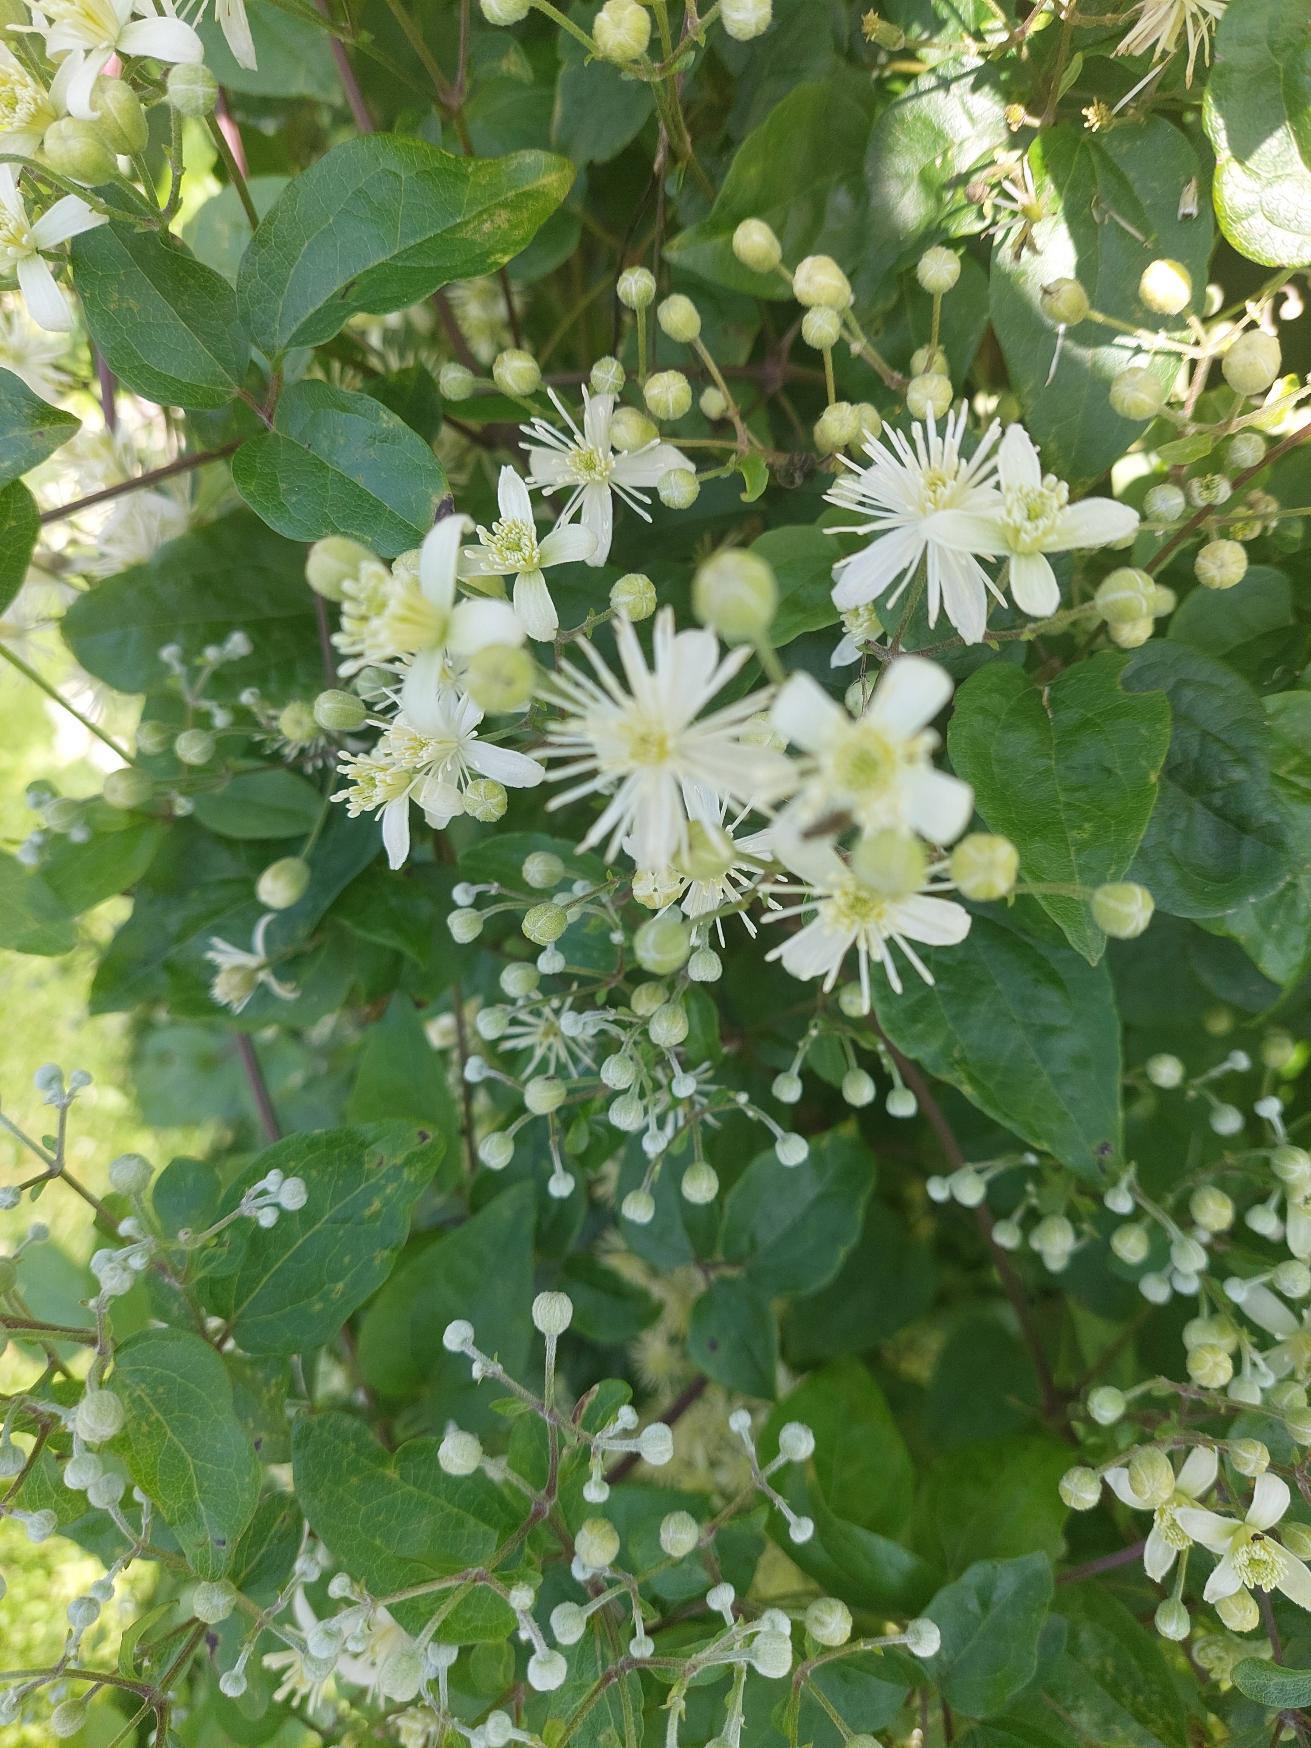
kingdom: Plantae
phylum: Tracheophyta
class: Magnoliopsida
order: Ranunculales
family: Ranunculaceae
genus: Clematis
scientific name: Clematis vitalba
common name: Skovranke
